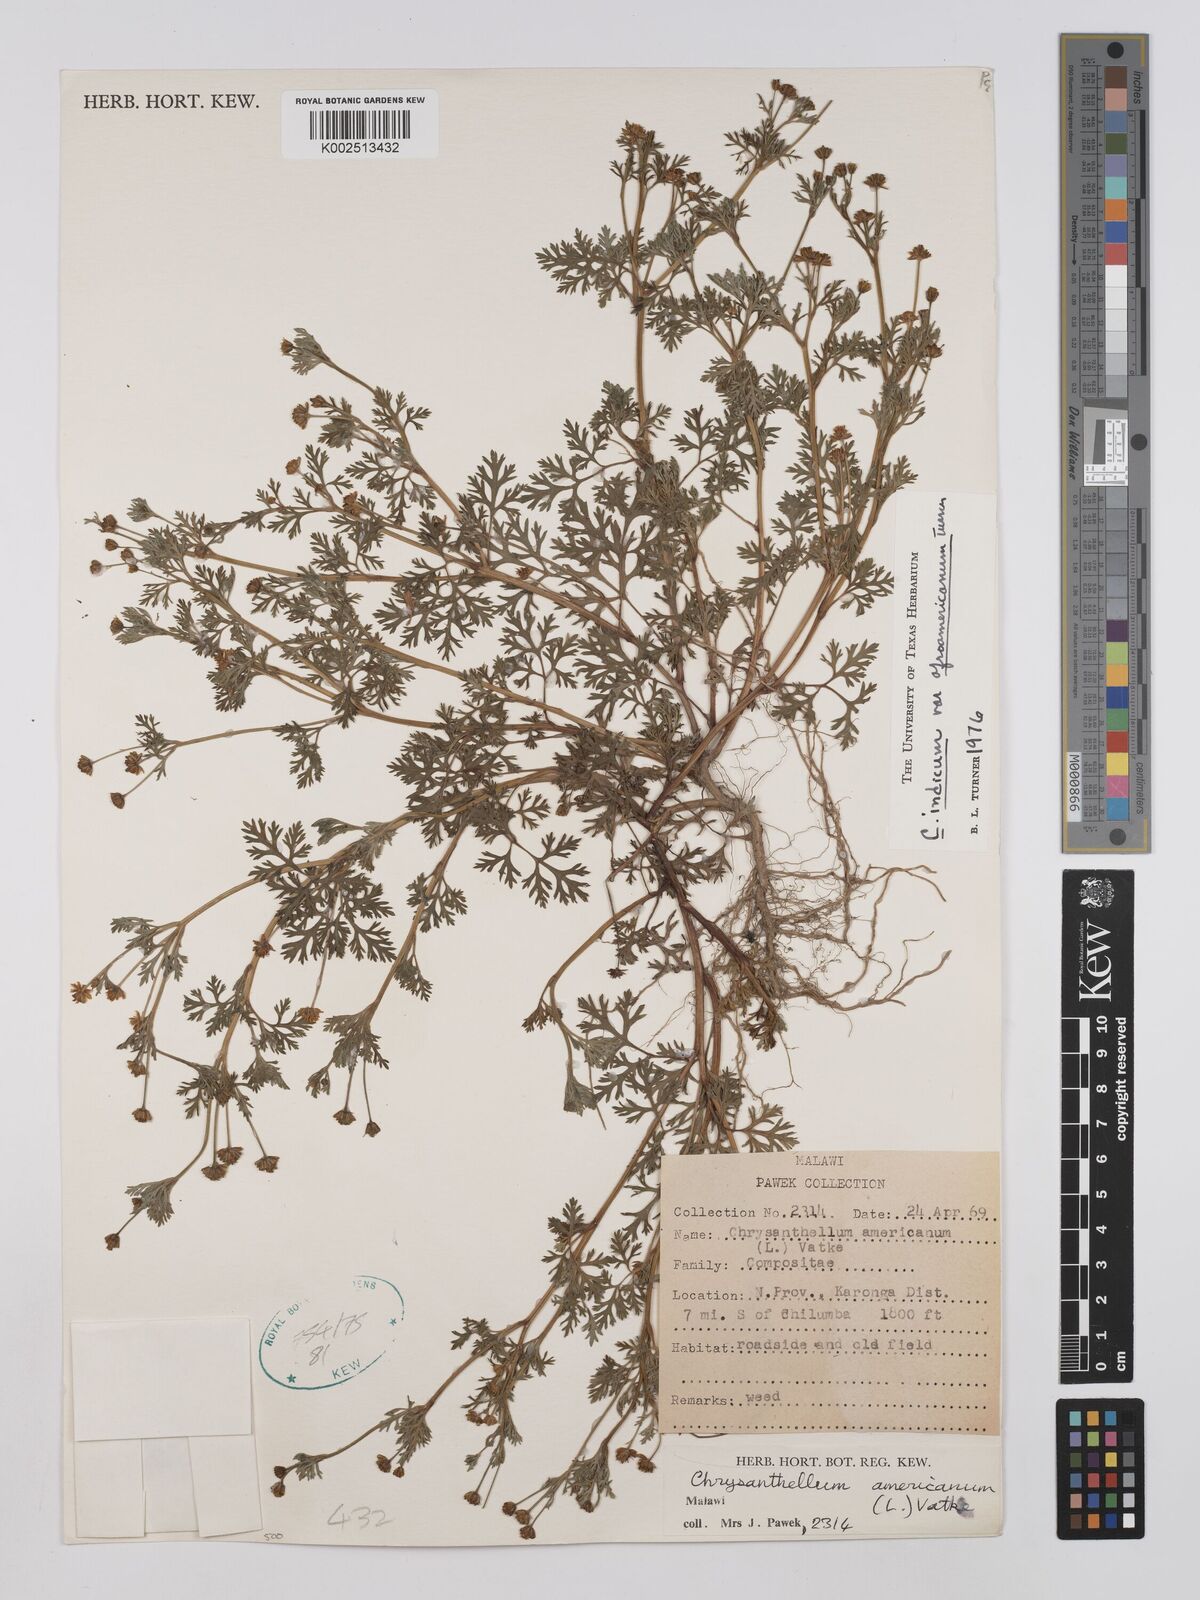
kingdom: Plantae
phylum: Tracheophyta
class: Magnoliopsida
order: Asterales
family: Asteraceae
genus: Chrysanthellum
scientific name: Chrysanthellum indicum
